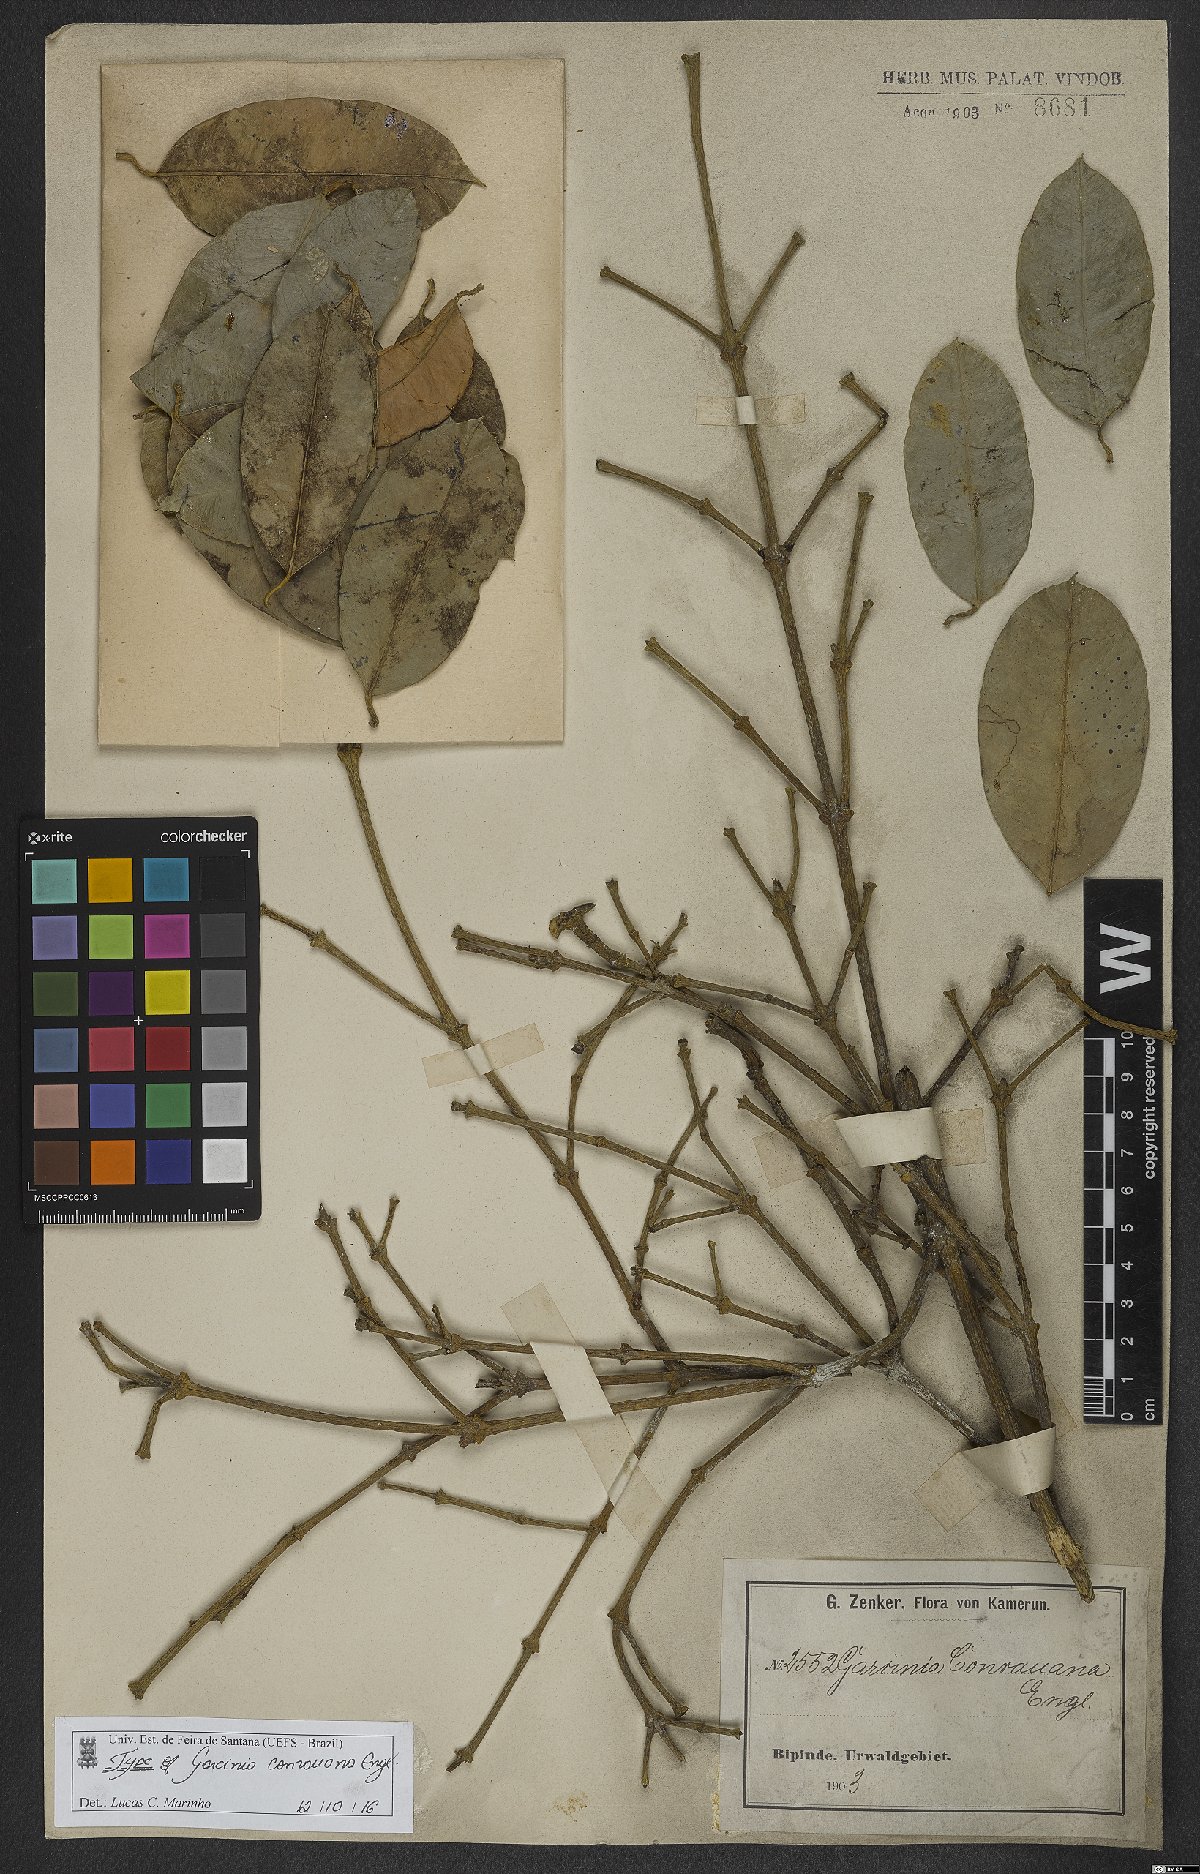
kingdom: Plantae
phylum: Tracheophyta
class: Magnoliopsida
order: Malpighiales
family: Clusiaceae
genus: Garcinia
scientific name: Garcinia conrauana
